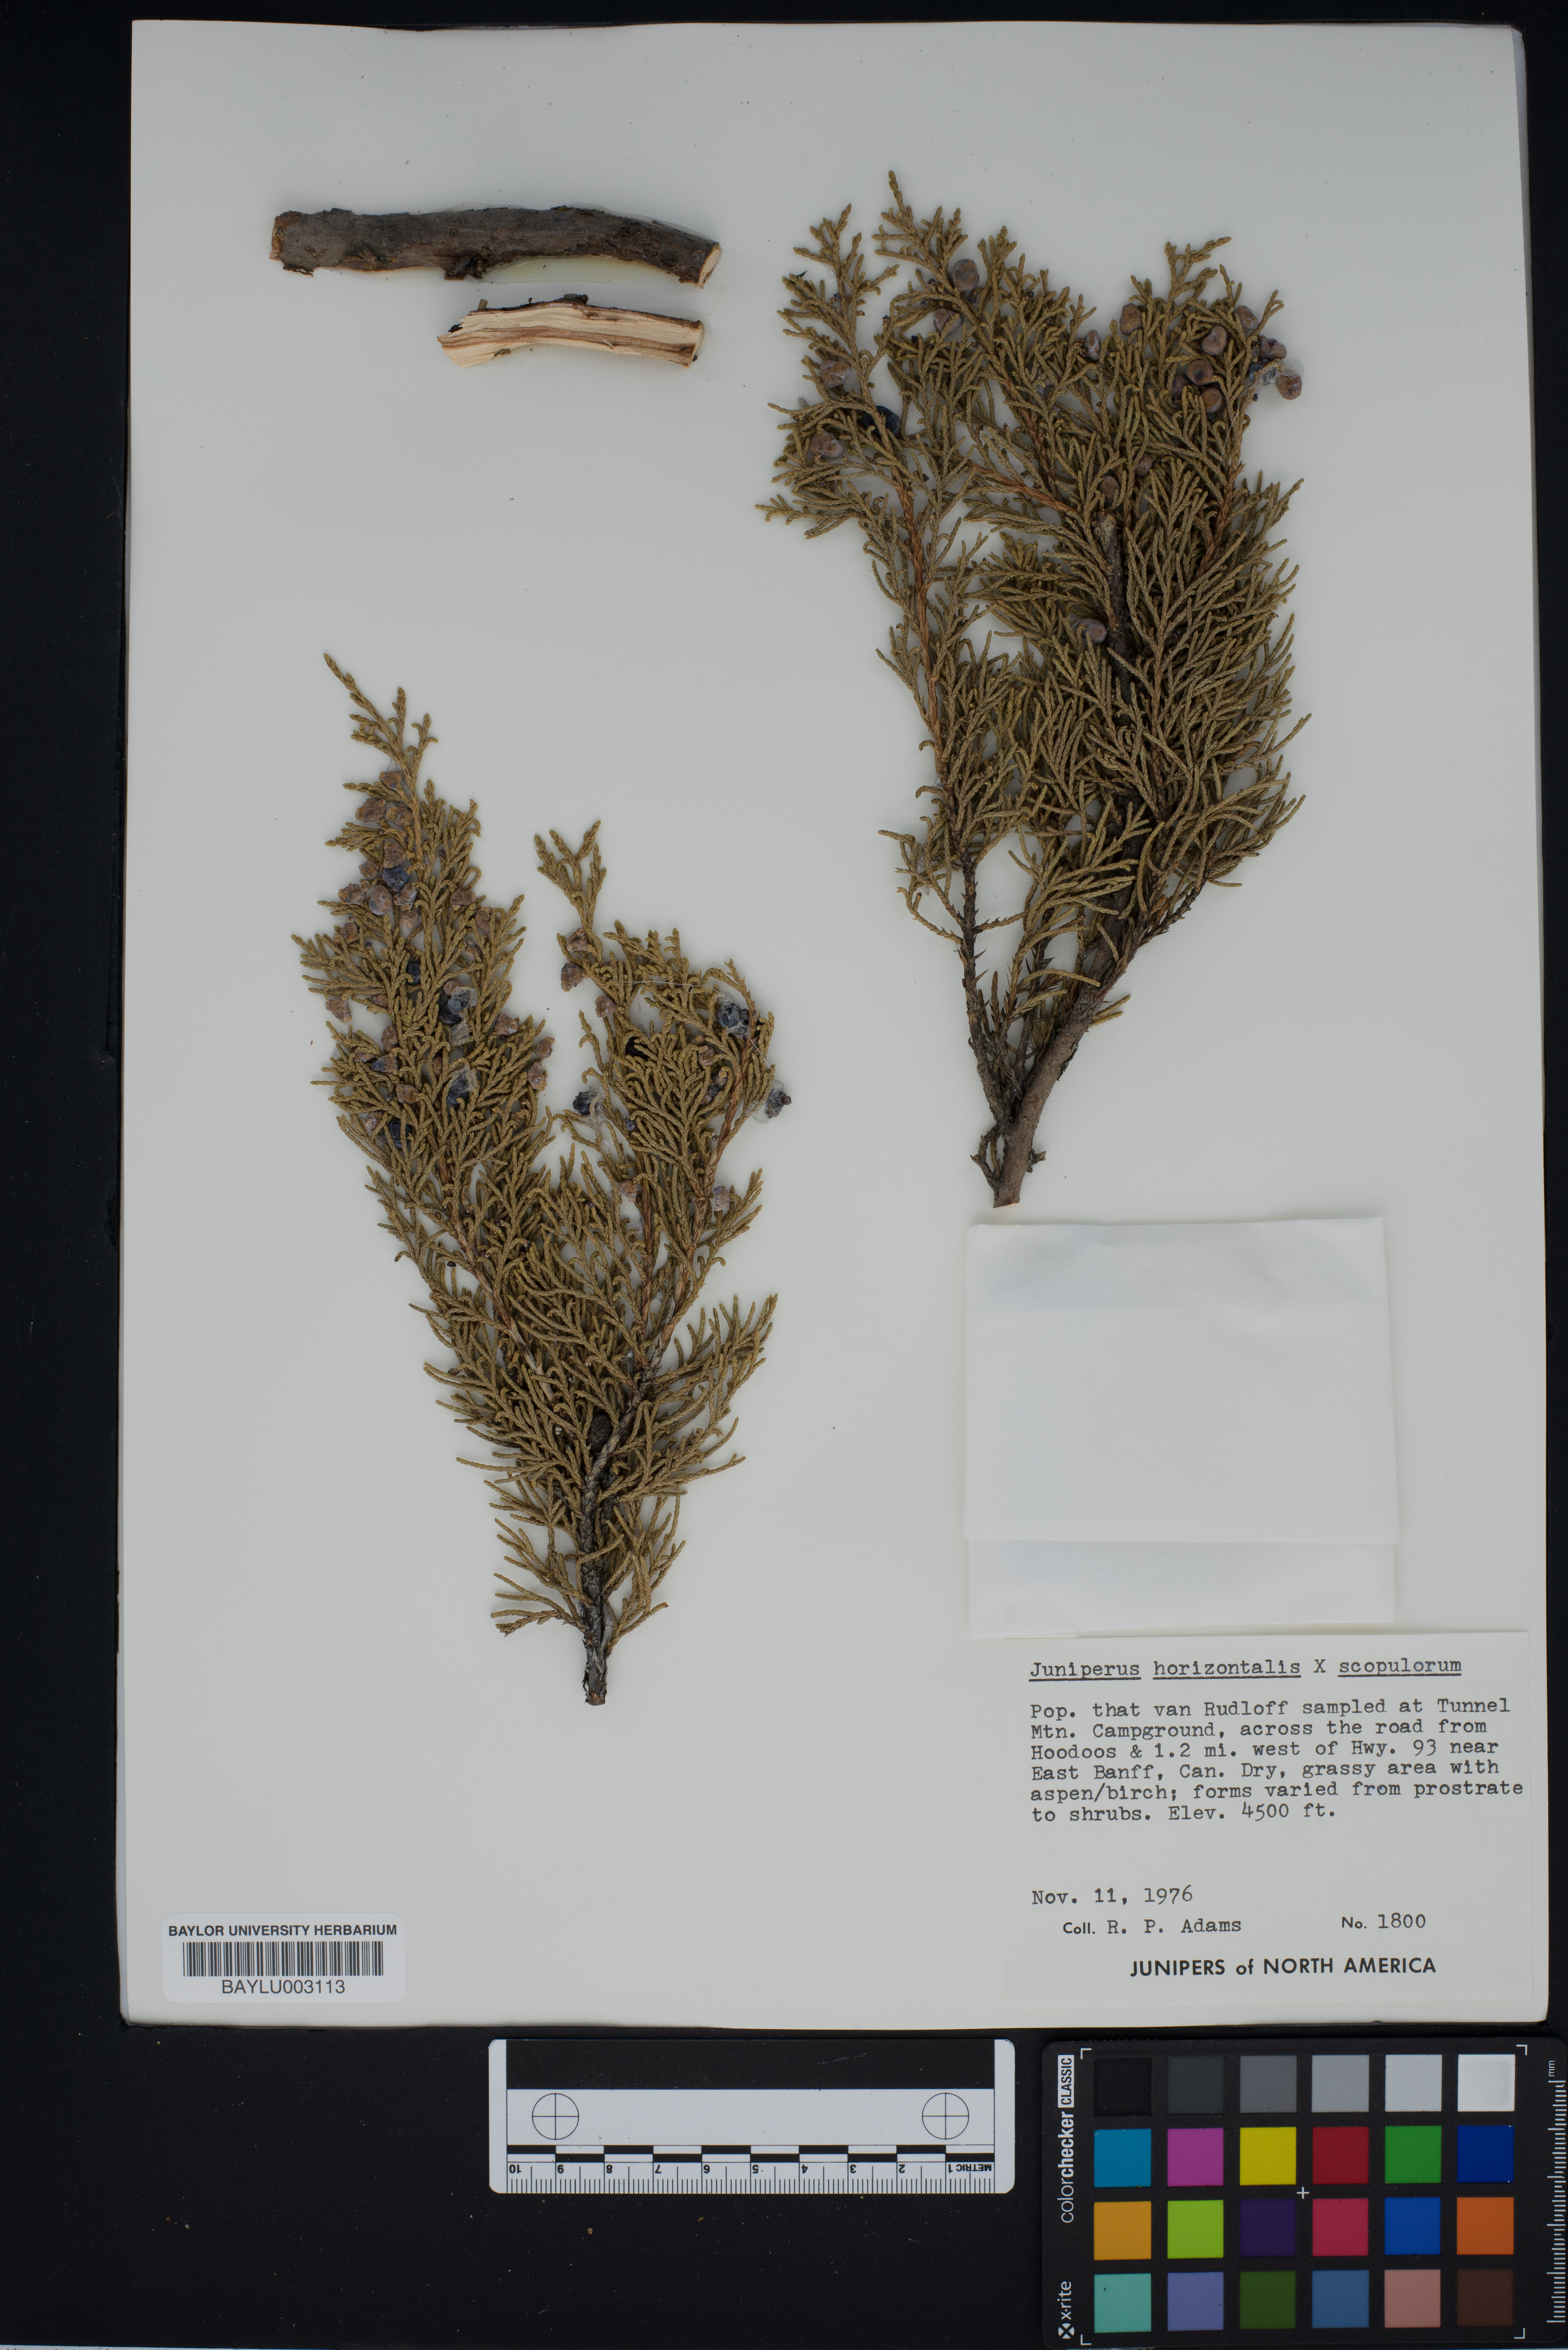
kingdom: Plantae
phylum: Tracheophyta
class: Pinopsida
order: Pinales
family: Cupressaceae
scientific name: Cupressaceae
